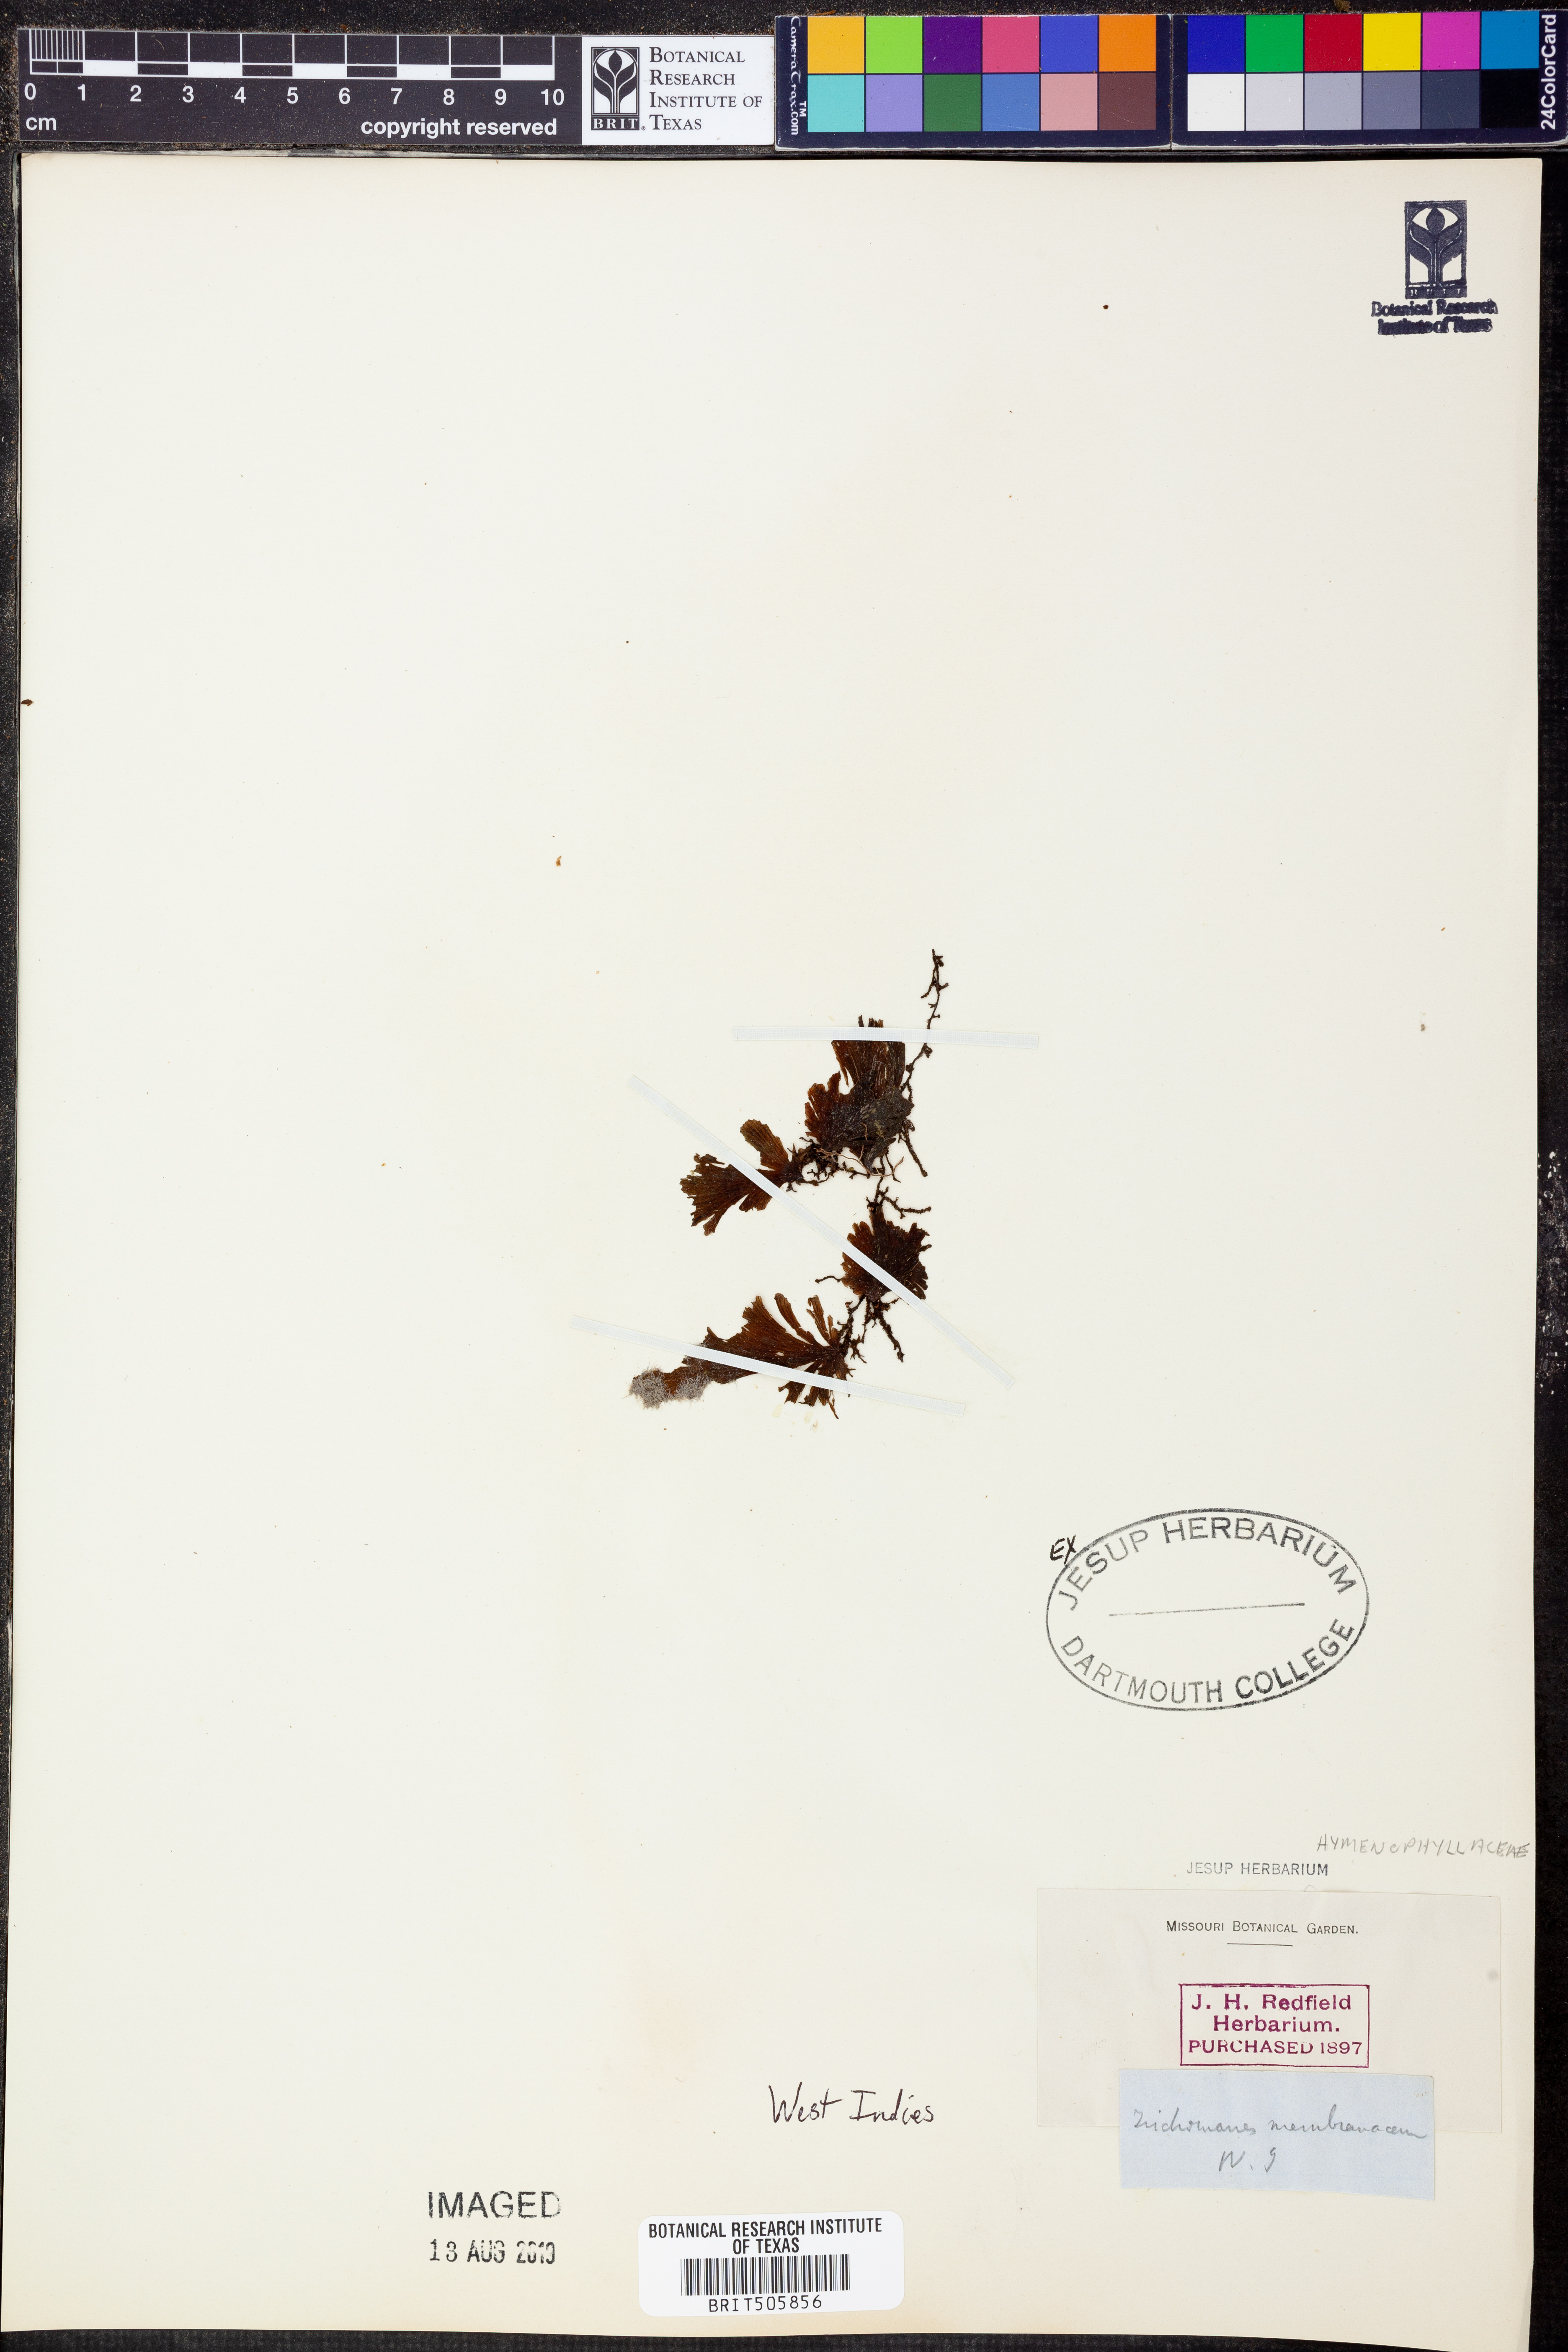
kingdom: Plantae
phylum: Tracheophyta
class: Polypodiopsida
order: Hymenophyllales
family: Hymenophyllaceae
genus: Didymoglossum
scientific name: Didymoglossum membranaceum
